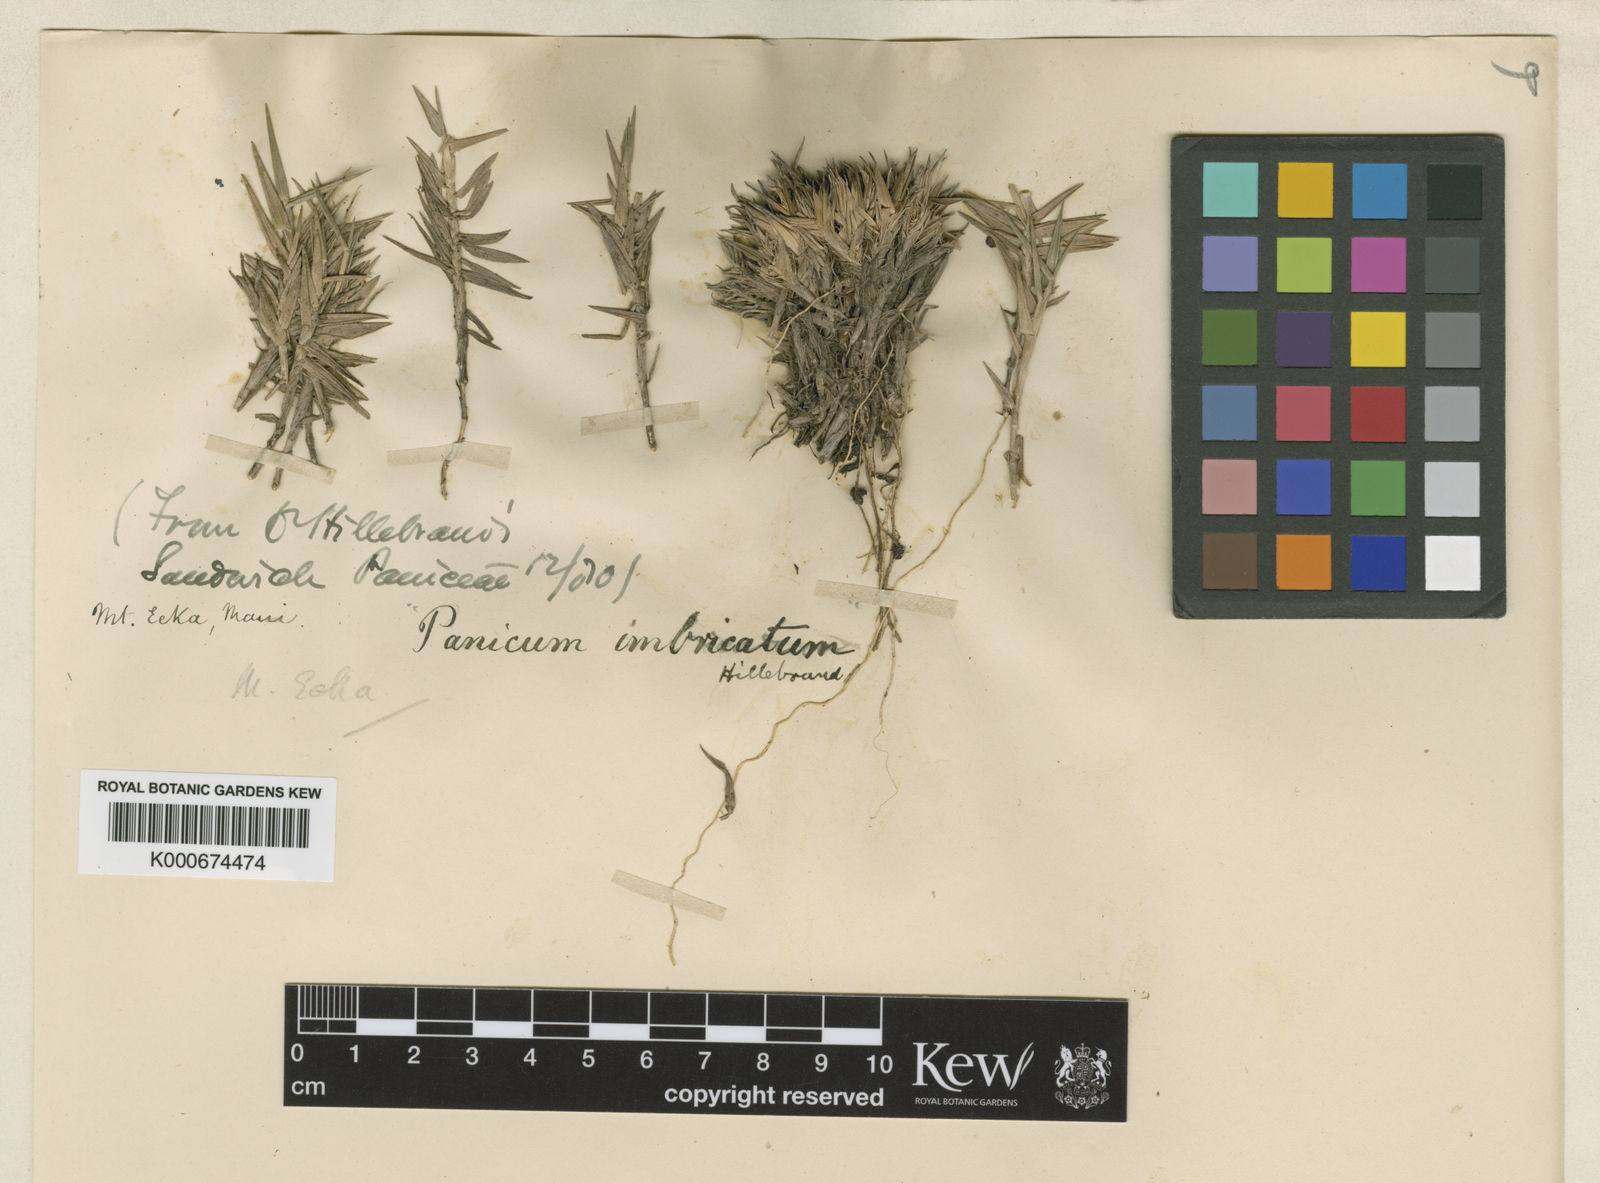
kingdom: Plantae
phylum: Tracheophyta
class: Liliopsida
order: Poales
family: Poaceae
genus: Dichanthelium
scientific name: Dichanthelium cynodon
